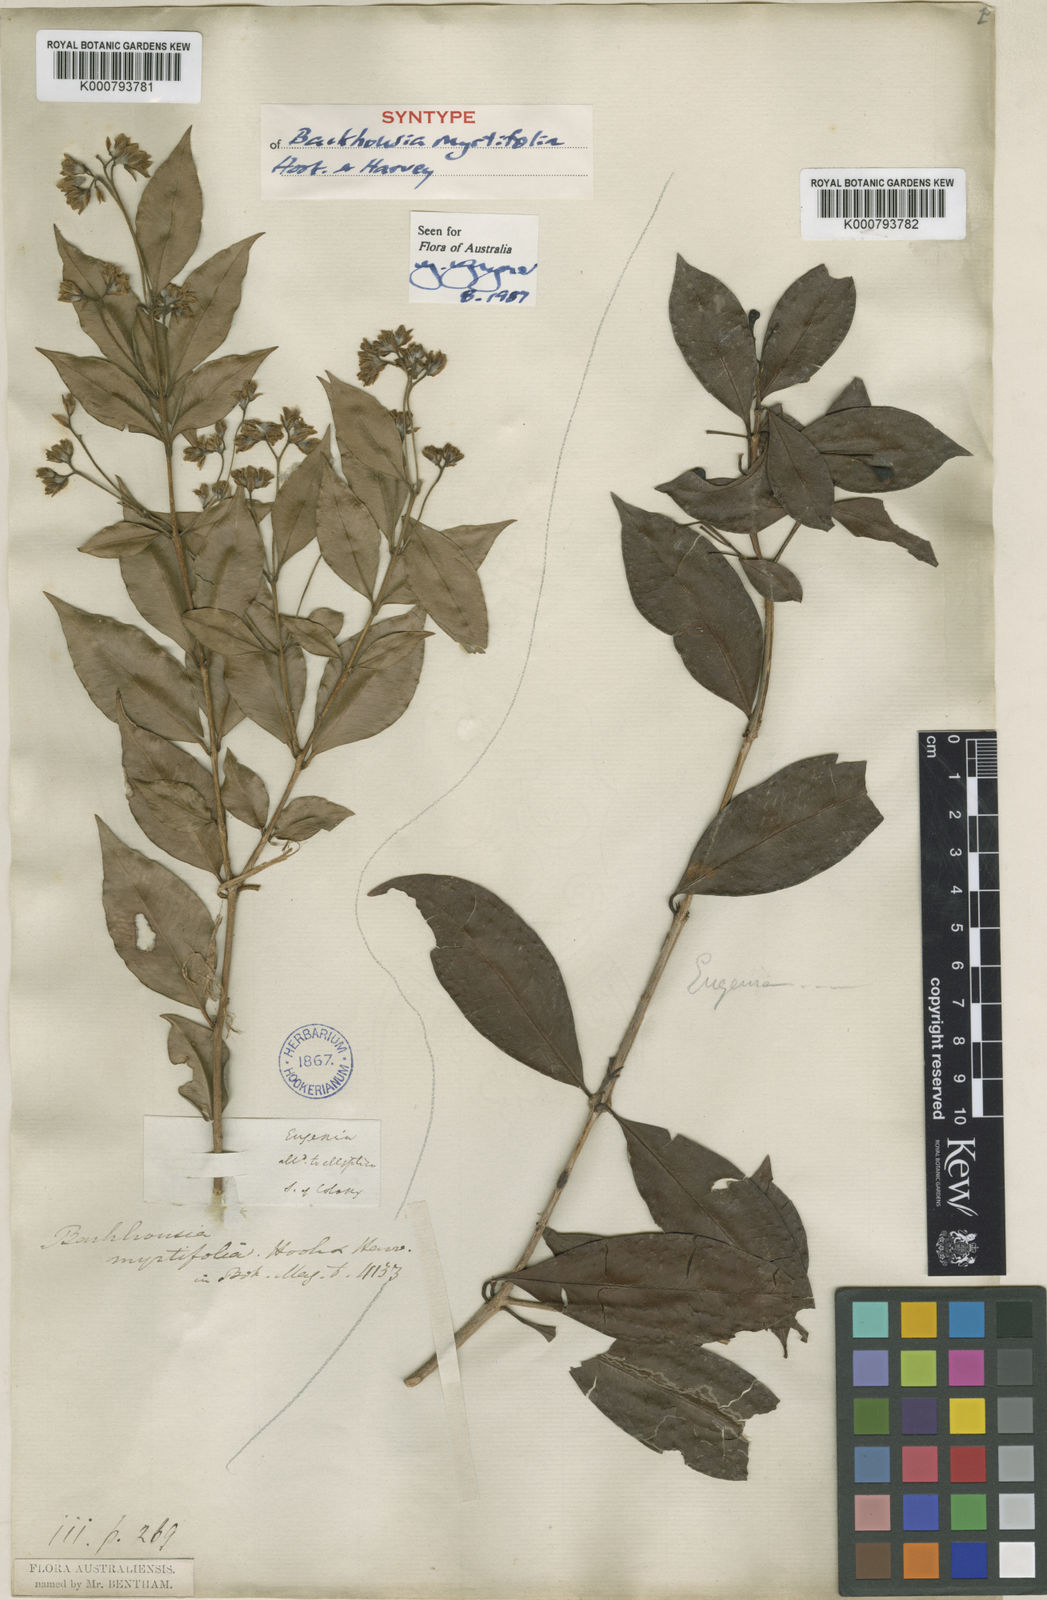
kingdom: Plantae
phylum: Tracheophyta
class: Magnoliopsida
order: Myrtales
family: Myrtaceae
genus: Backhousia
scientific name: Backhousia myrtifolia
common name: Carrol
